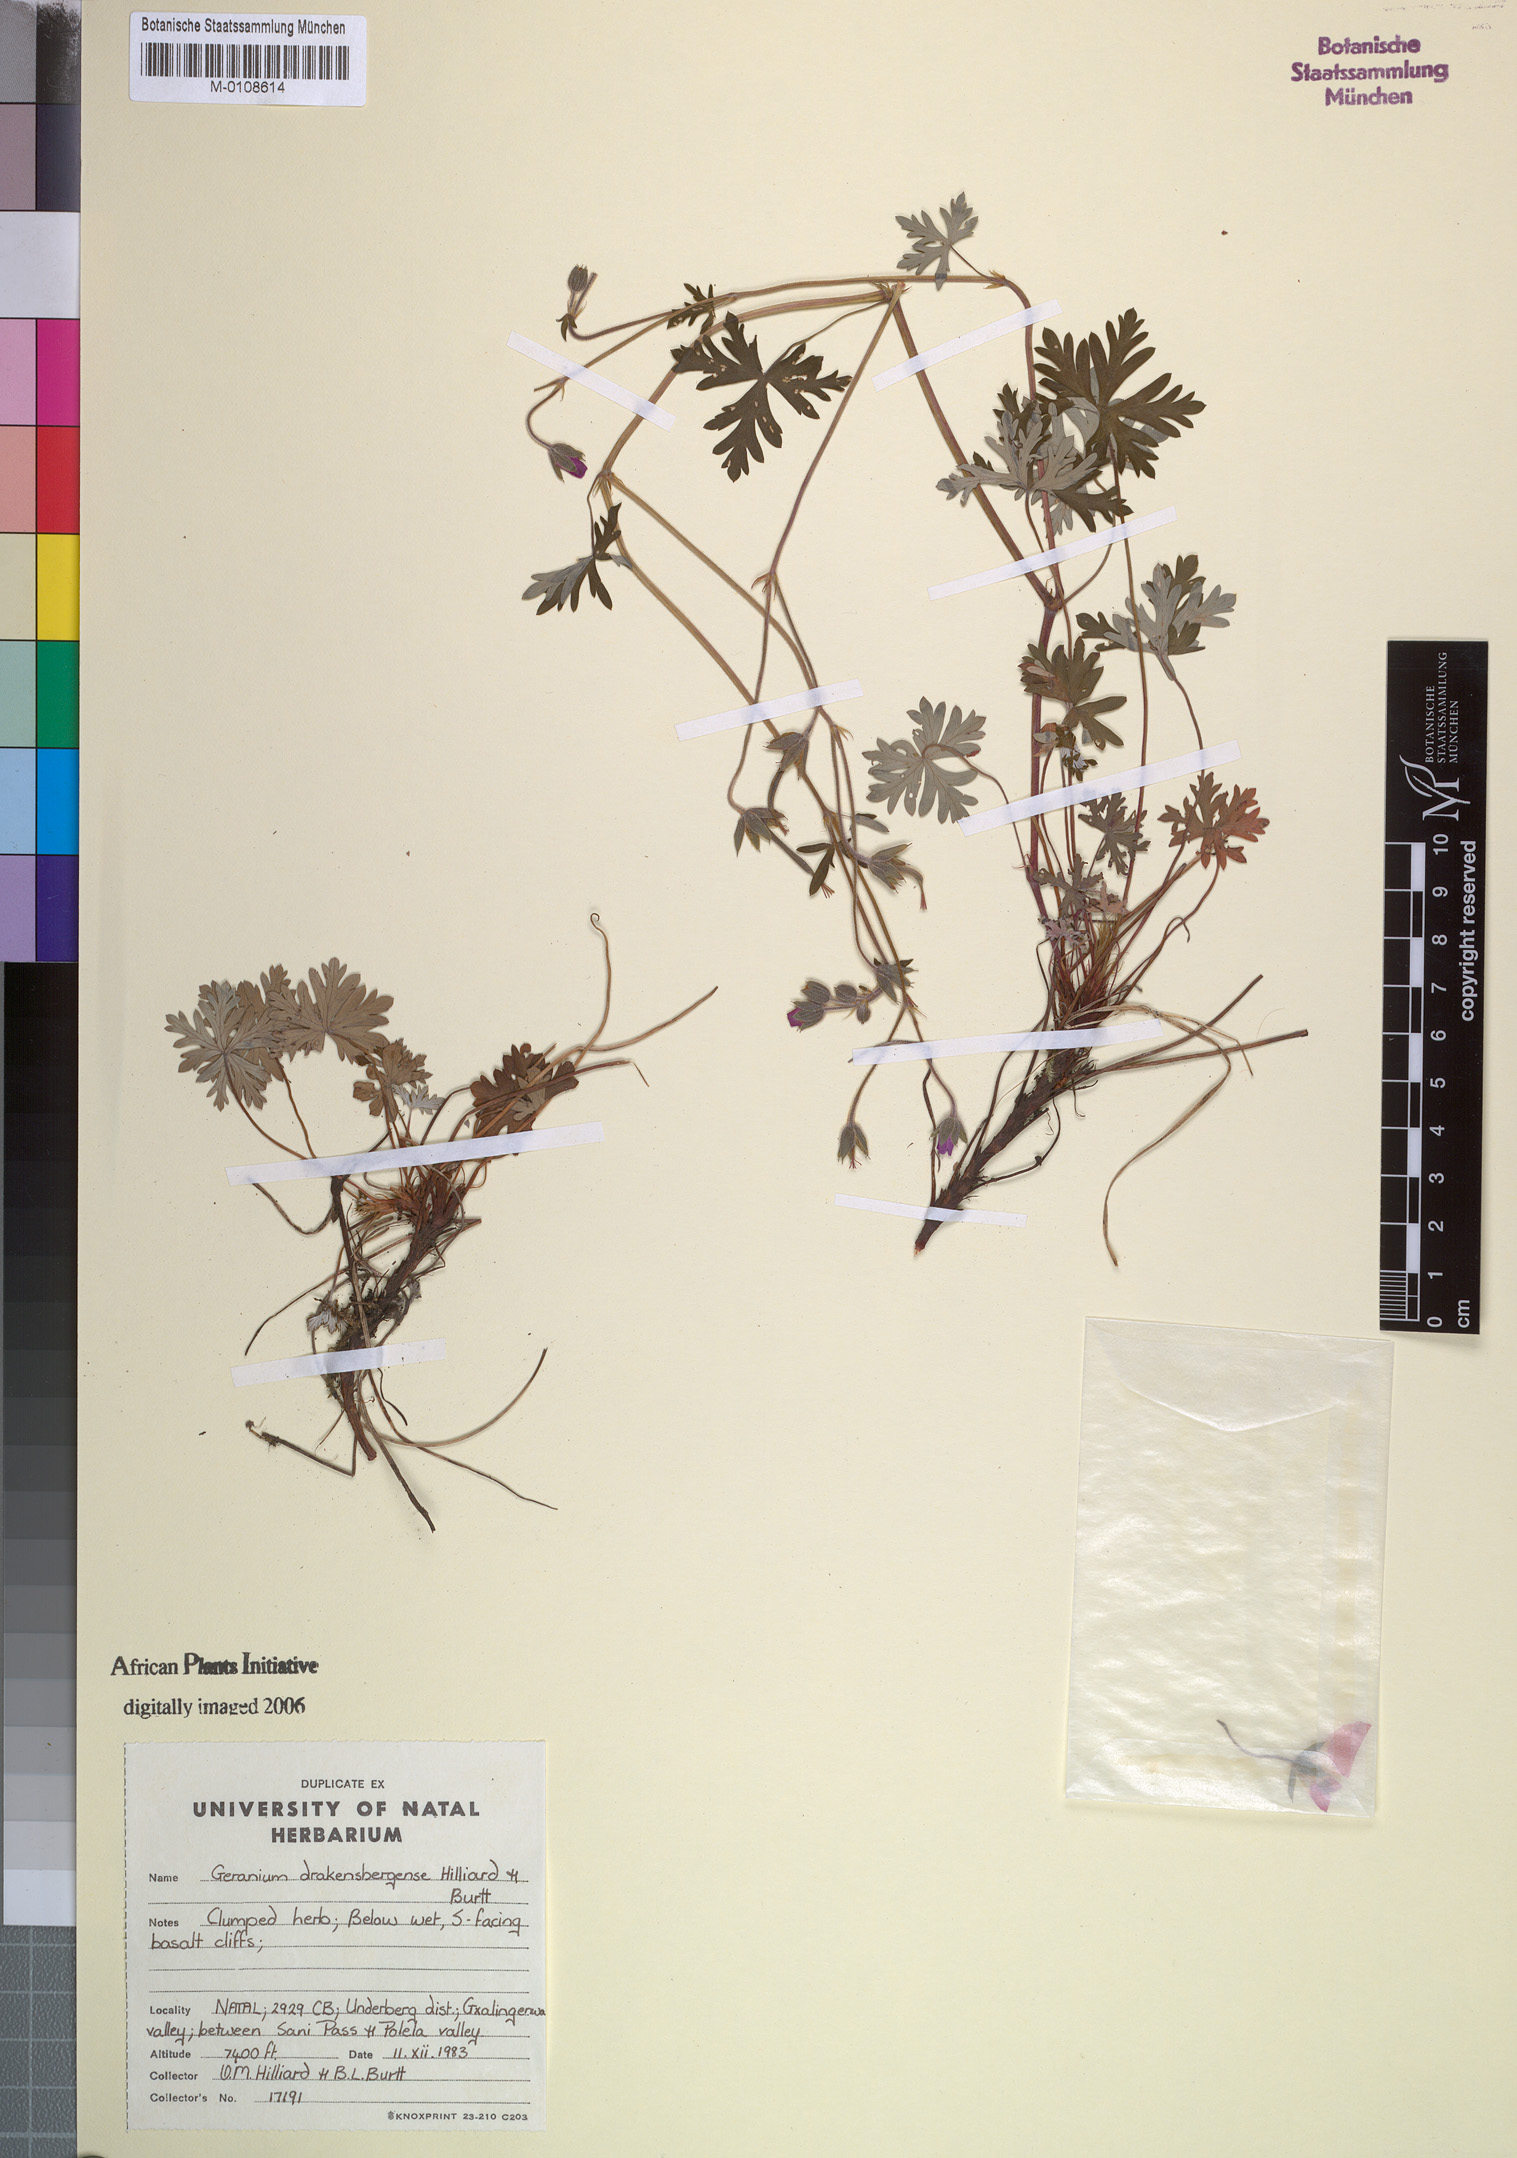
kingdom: Plantae
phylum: Tracheophyta
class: Magnoliopsida
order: Geraniales
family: Geraniaceae
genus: Geranium
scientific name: Geranium drakensbergense
